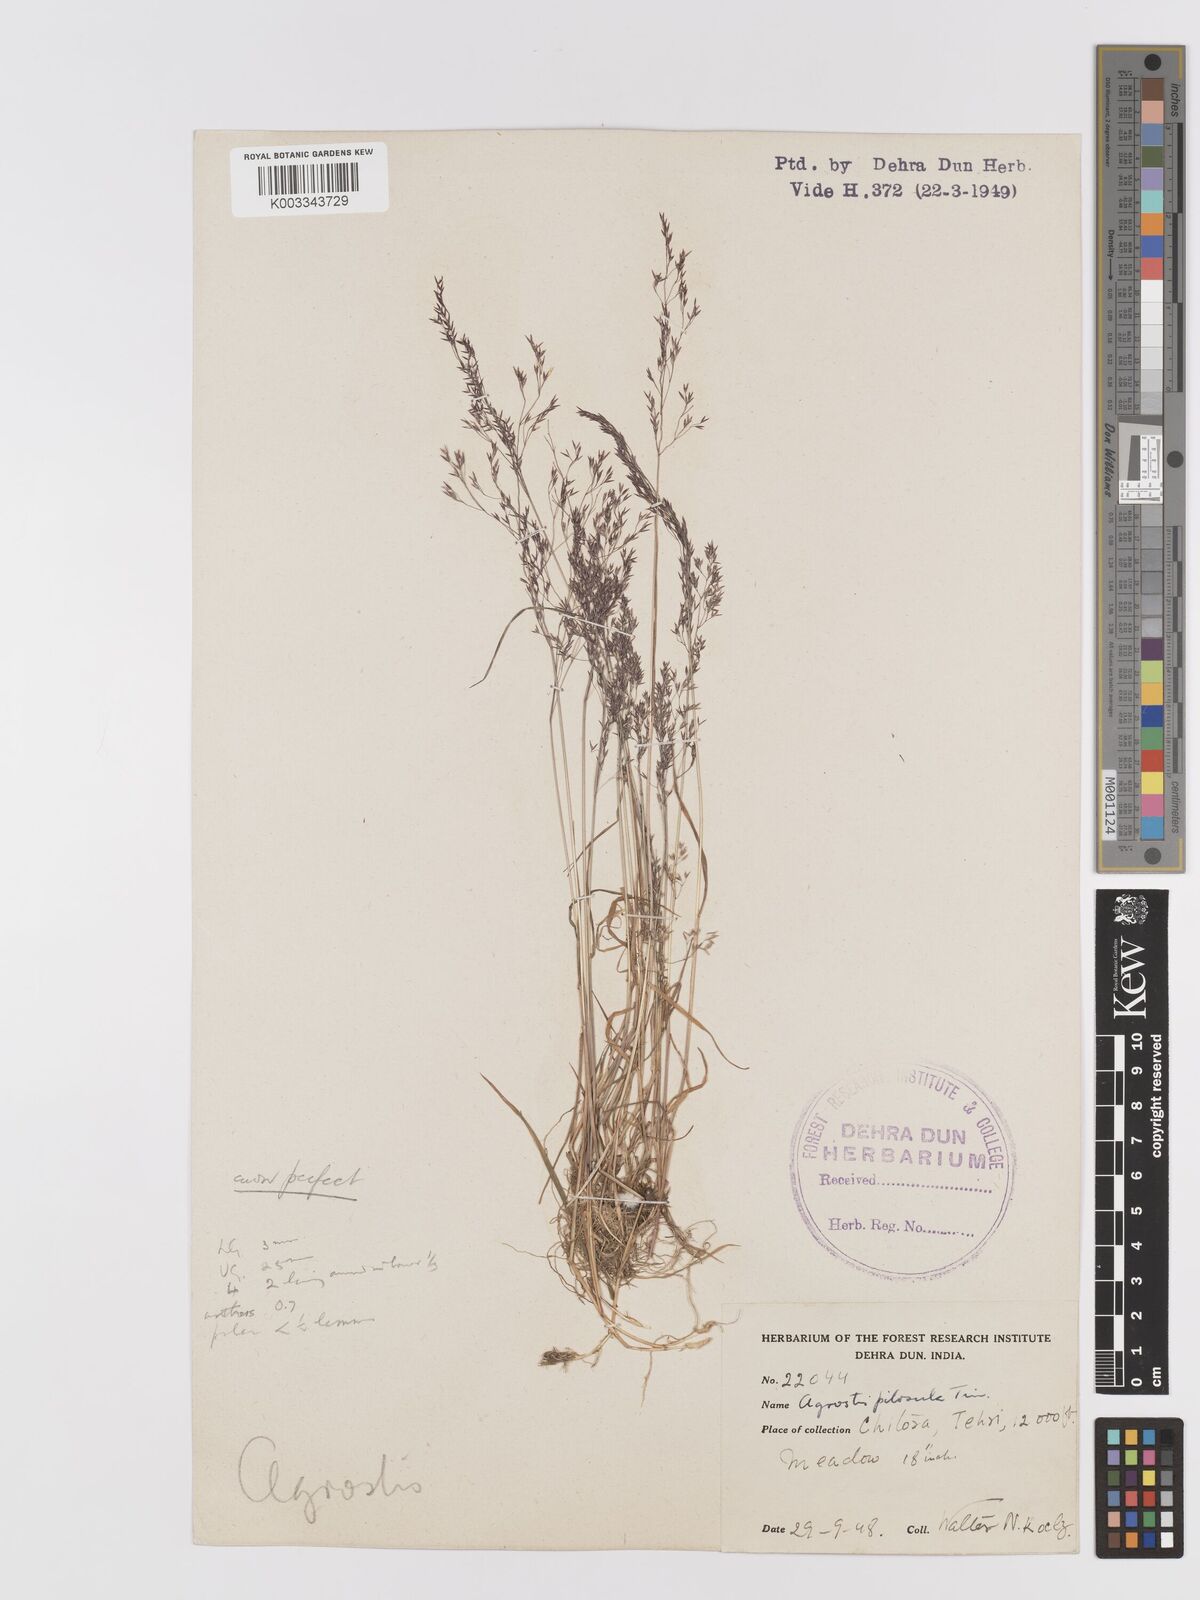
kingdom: Plantae
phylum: Tracheophyta
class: Liliopsida
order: Poales
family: Poaceae
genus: Agrostis
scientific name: Agrostis pilosula
